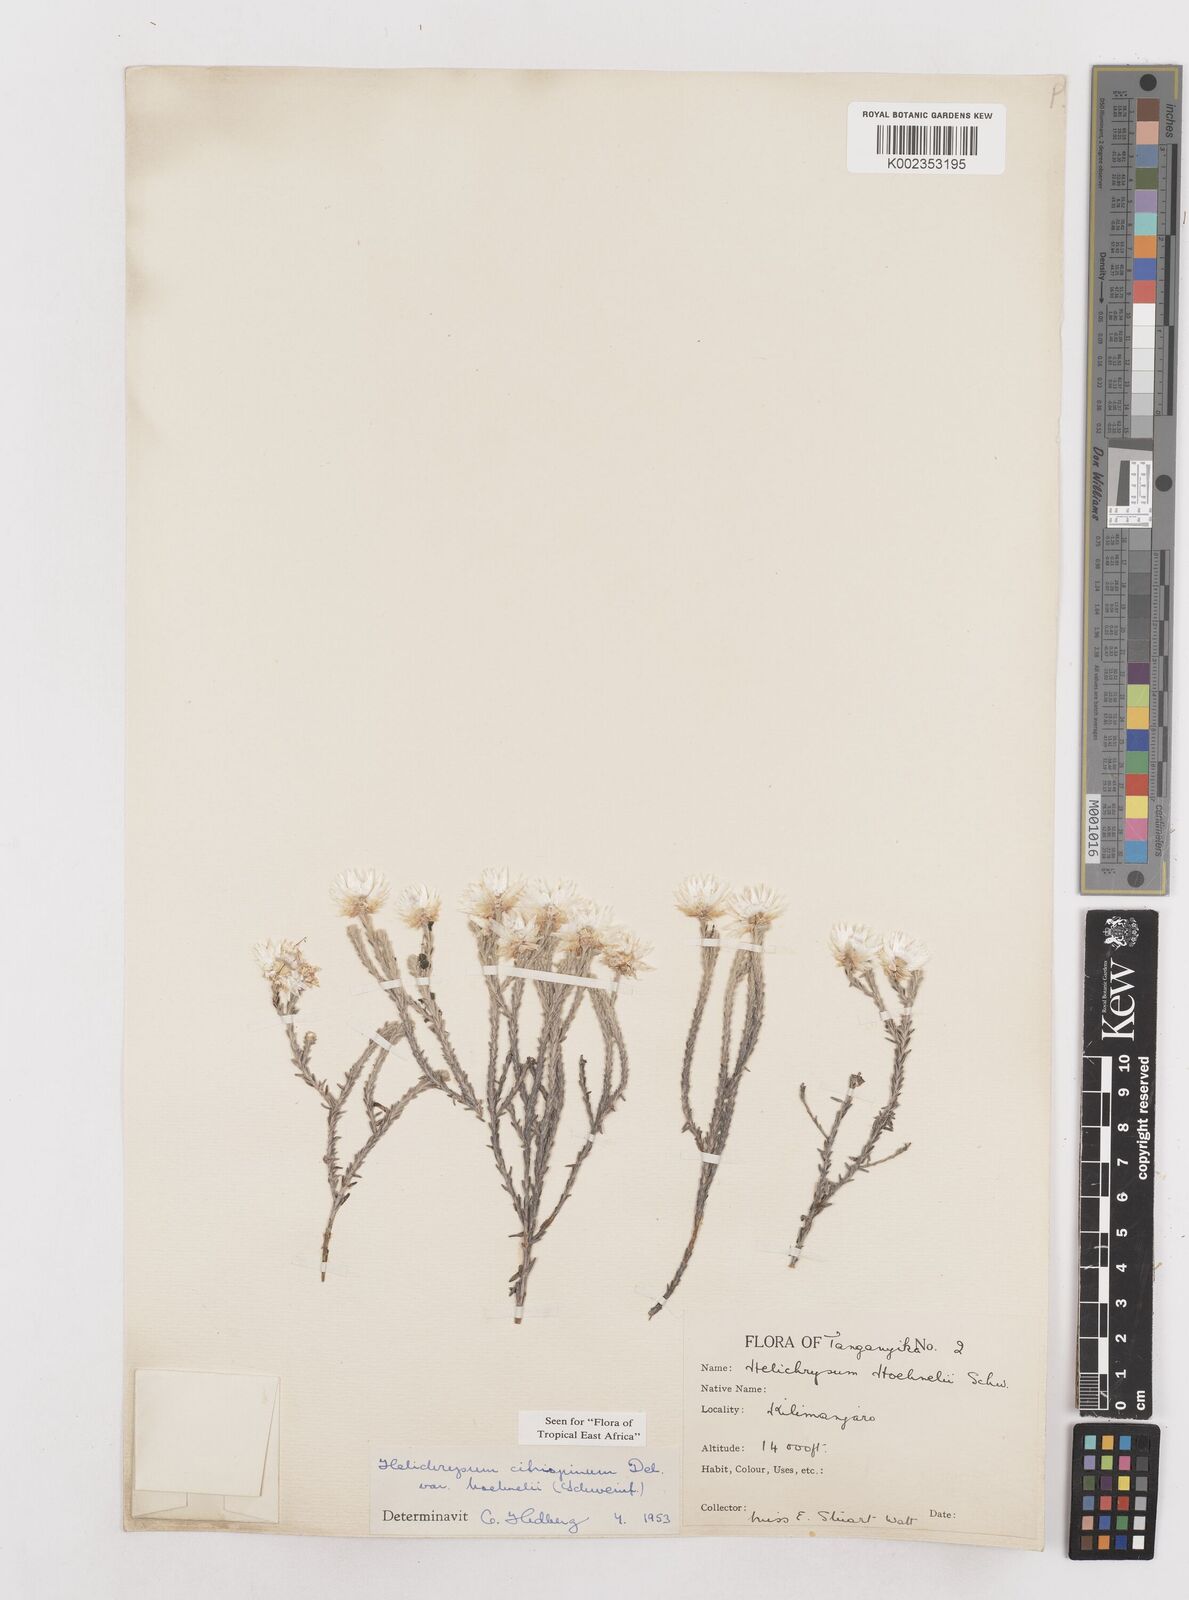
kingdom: Plantae
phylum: Tracheophyta
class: Magnoliopsida
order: Asterales
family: Asteraceae
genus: Helichrysum
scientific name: Helichrysum citrispinum
